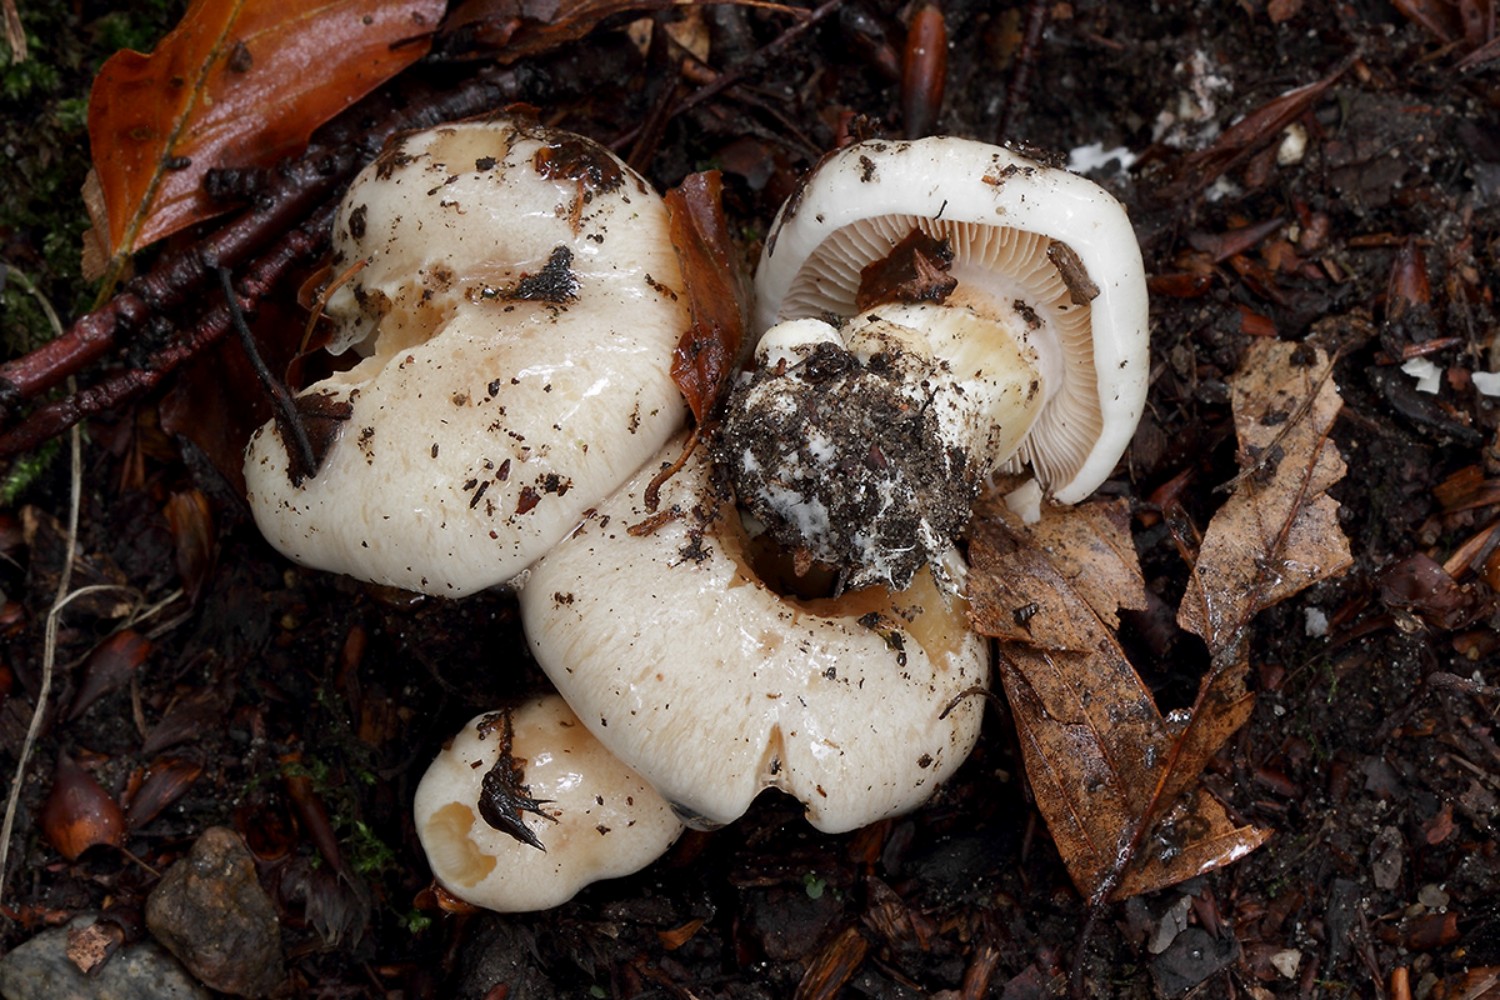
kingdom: Fungi
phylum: Basidiomycota
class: Agaricomycetes
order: Agaricales
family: Cortinariaceae
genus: Thaxterogaster
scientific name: Thaxterogaster barbatus
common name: elfenbens-slørhat
